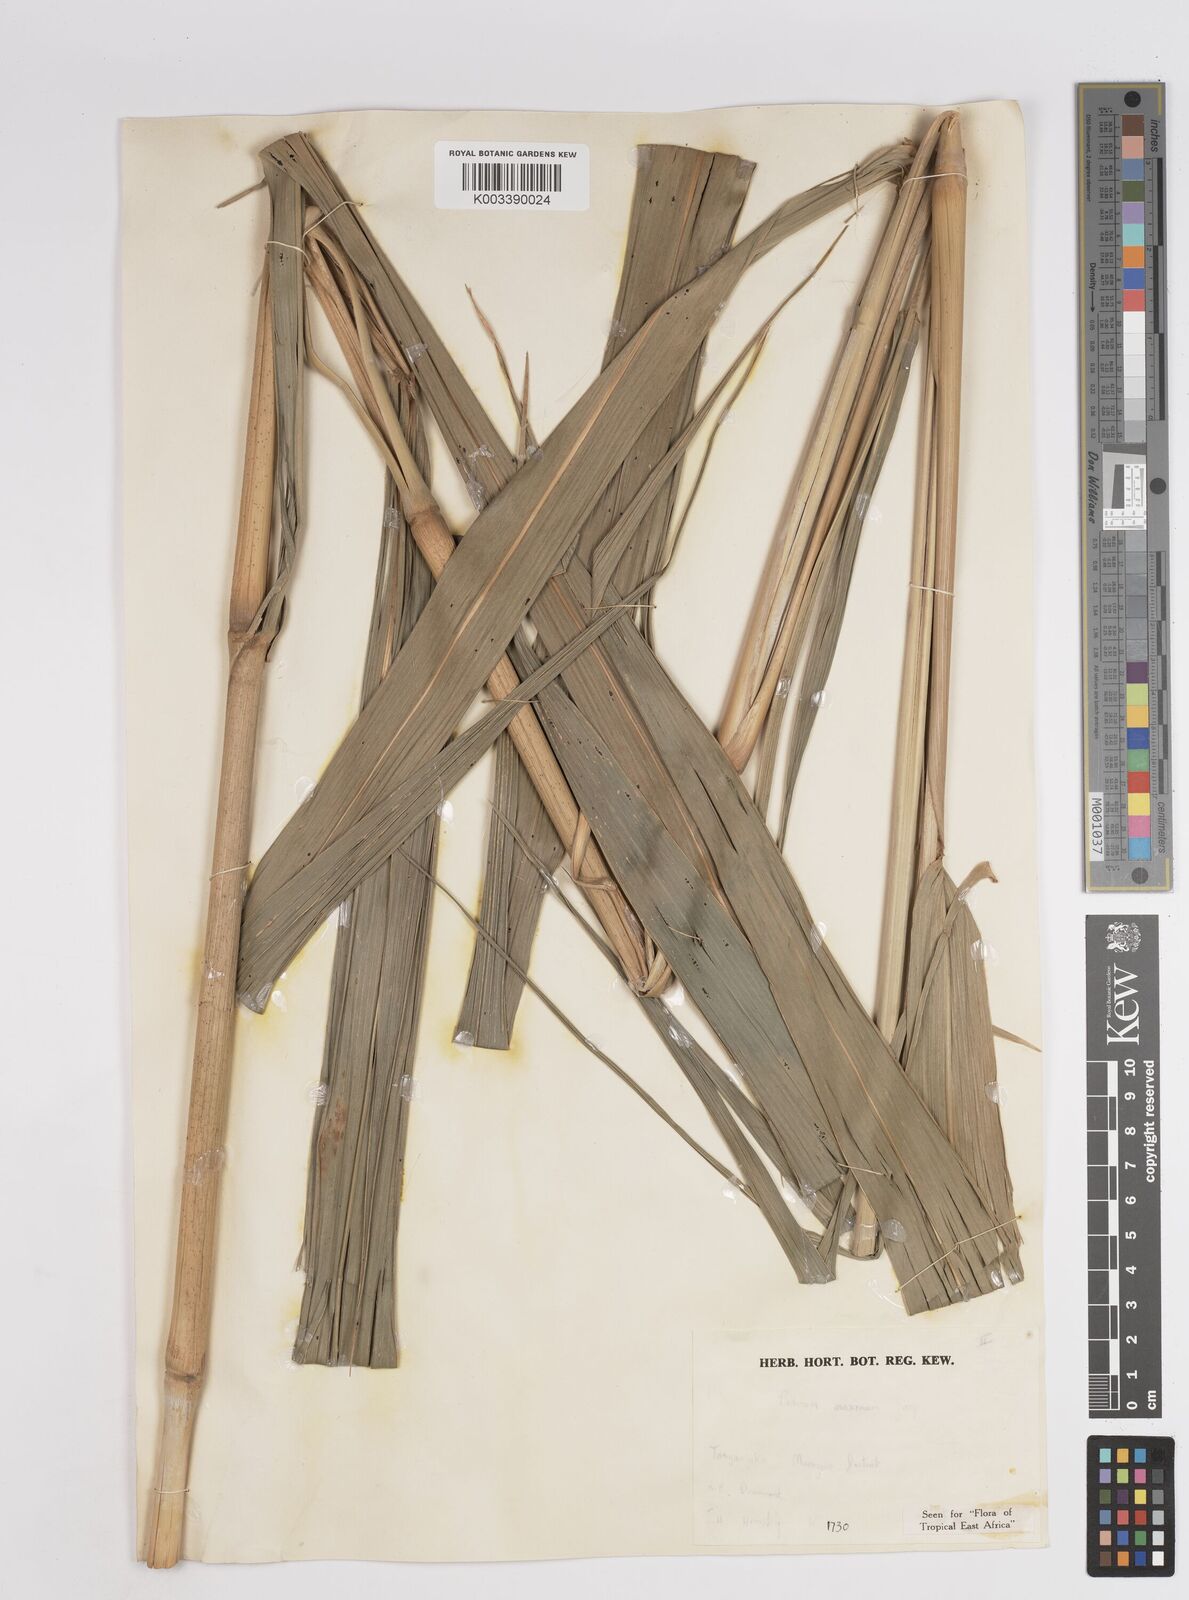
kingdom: Plantae
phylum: Tracheophyta
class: Liliopsida
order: Poales
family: Poaceae
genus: Megathyrsus
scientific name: Megathyrsus maximus
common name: Guineagrass
